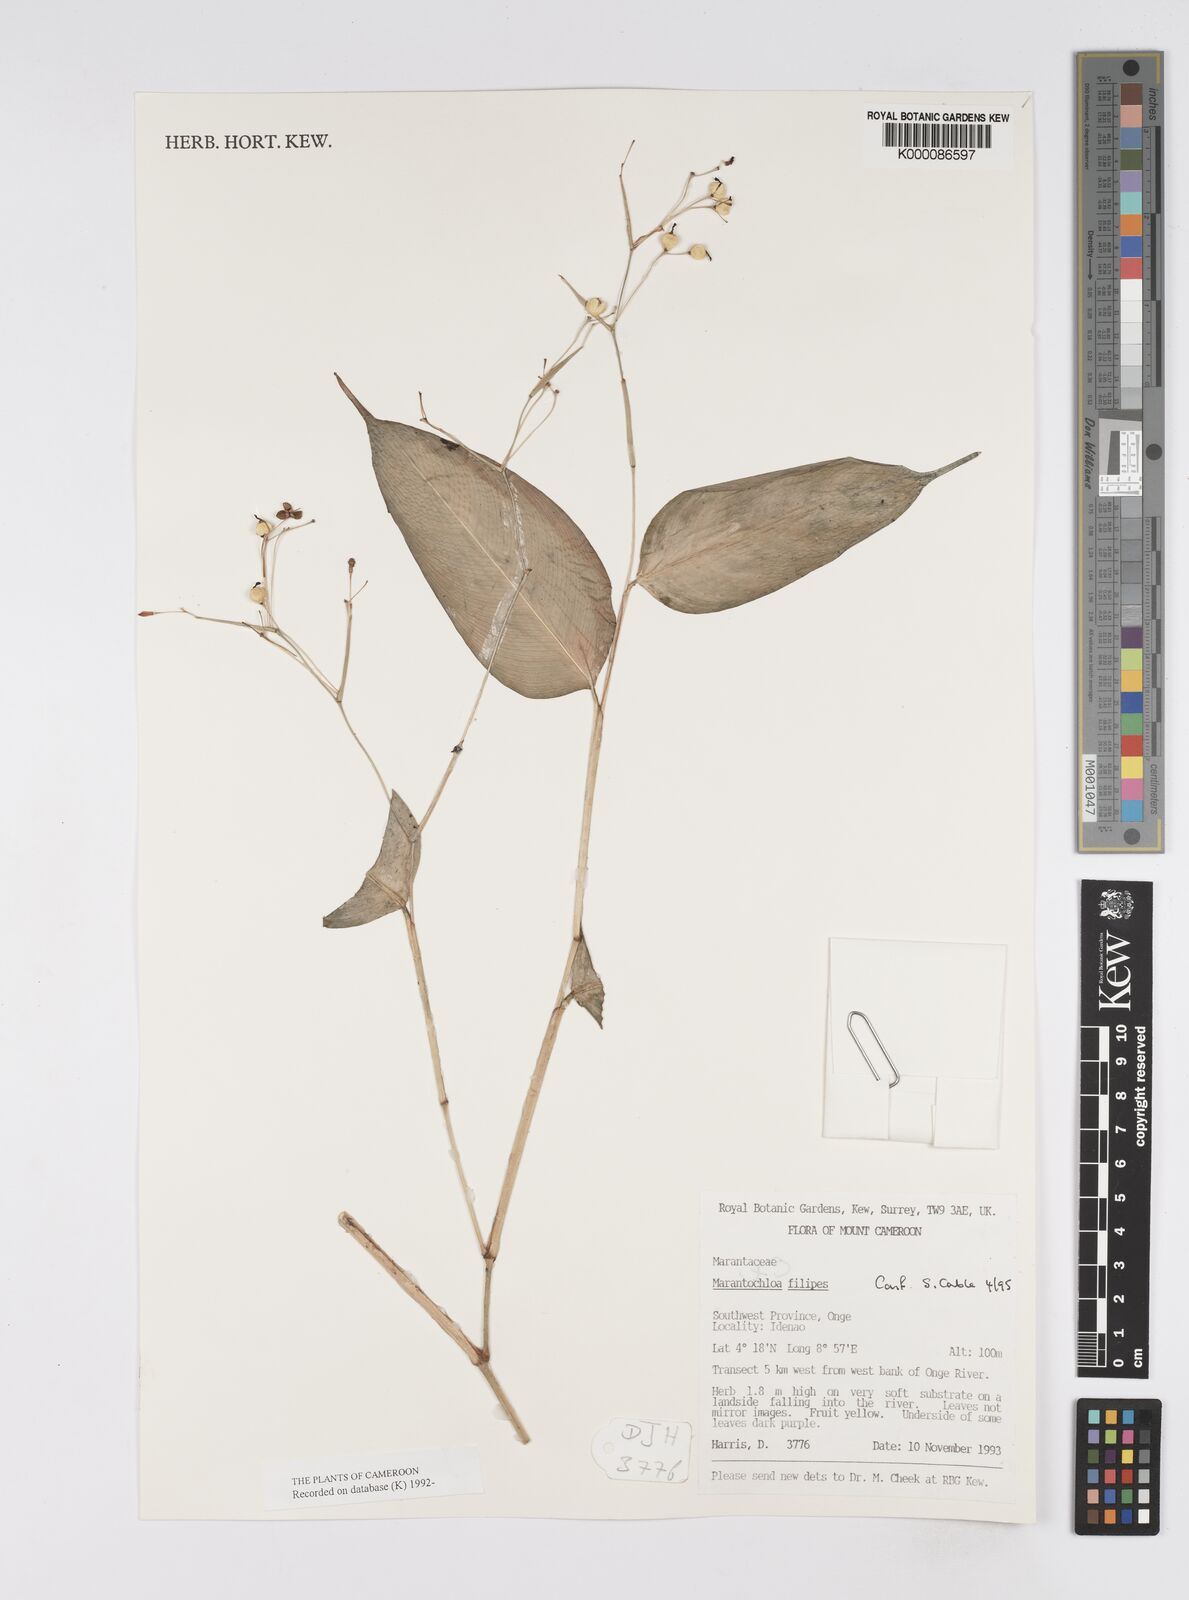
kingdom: Plantae
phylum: Tracheophyta
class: Liliopsida
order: Zingiberales
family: Marantaceae
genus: Marantochloa
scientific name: Marantochloa filipes
